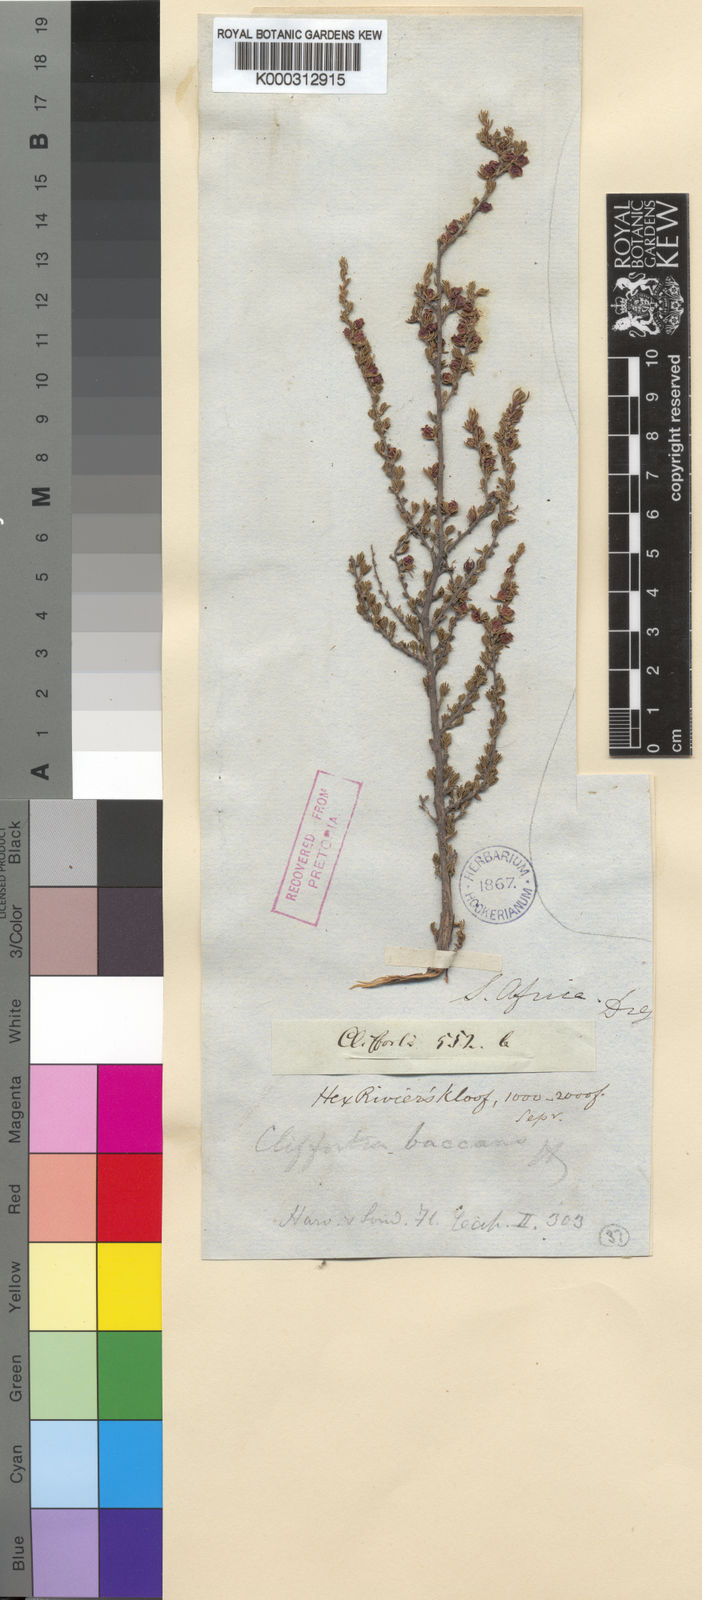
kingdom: Plantae
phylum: Tracheophyta
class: Magnoliopsida
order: Rosales
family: Rosaceae
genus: Cliffortia
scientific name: Cliffortia baccans
